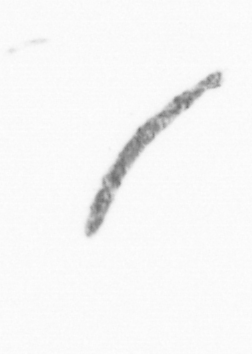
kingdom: Chromista
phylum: Ochrophyta
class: Bacillariophyceae
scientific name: Bacillariophyceae
